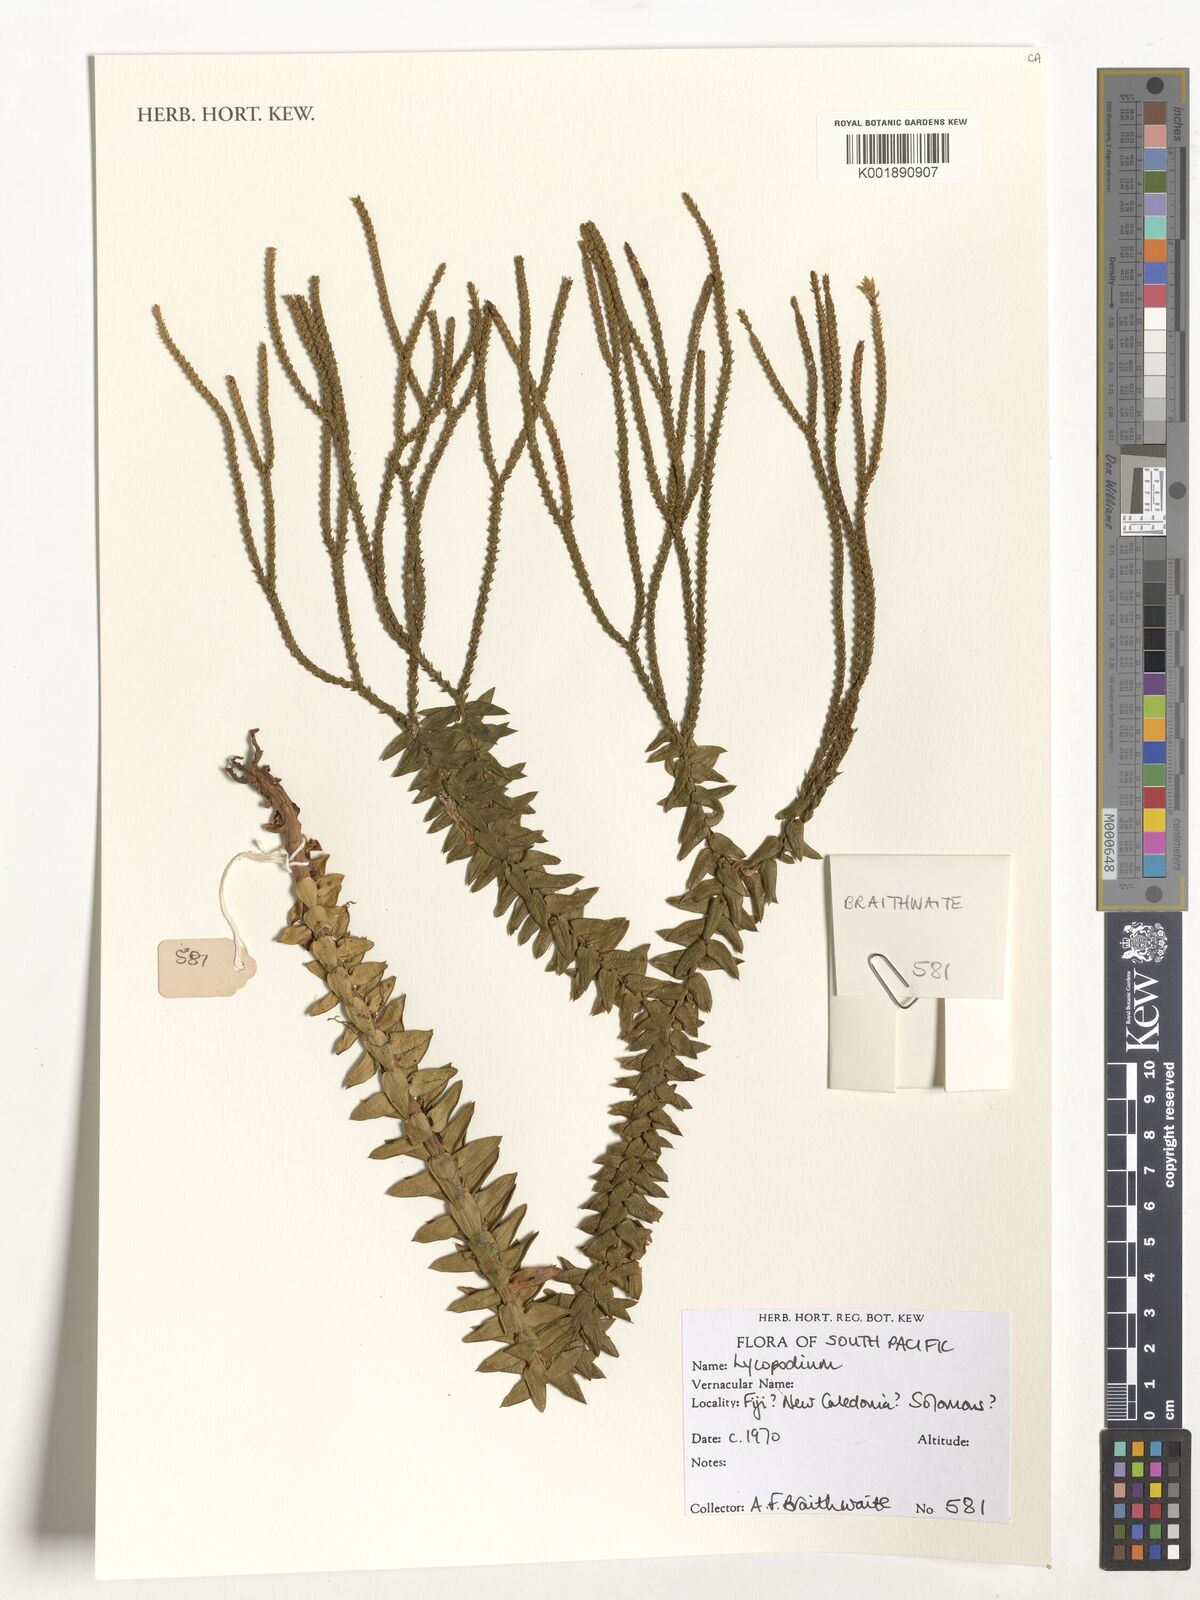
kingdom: Plantae
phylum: Tracheophyta
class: Lycopodiopsida
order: Lycopodiales
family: Lycopodiaceae
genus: Lycopodium
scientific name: Lycopodium
